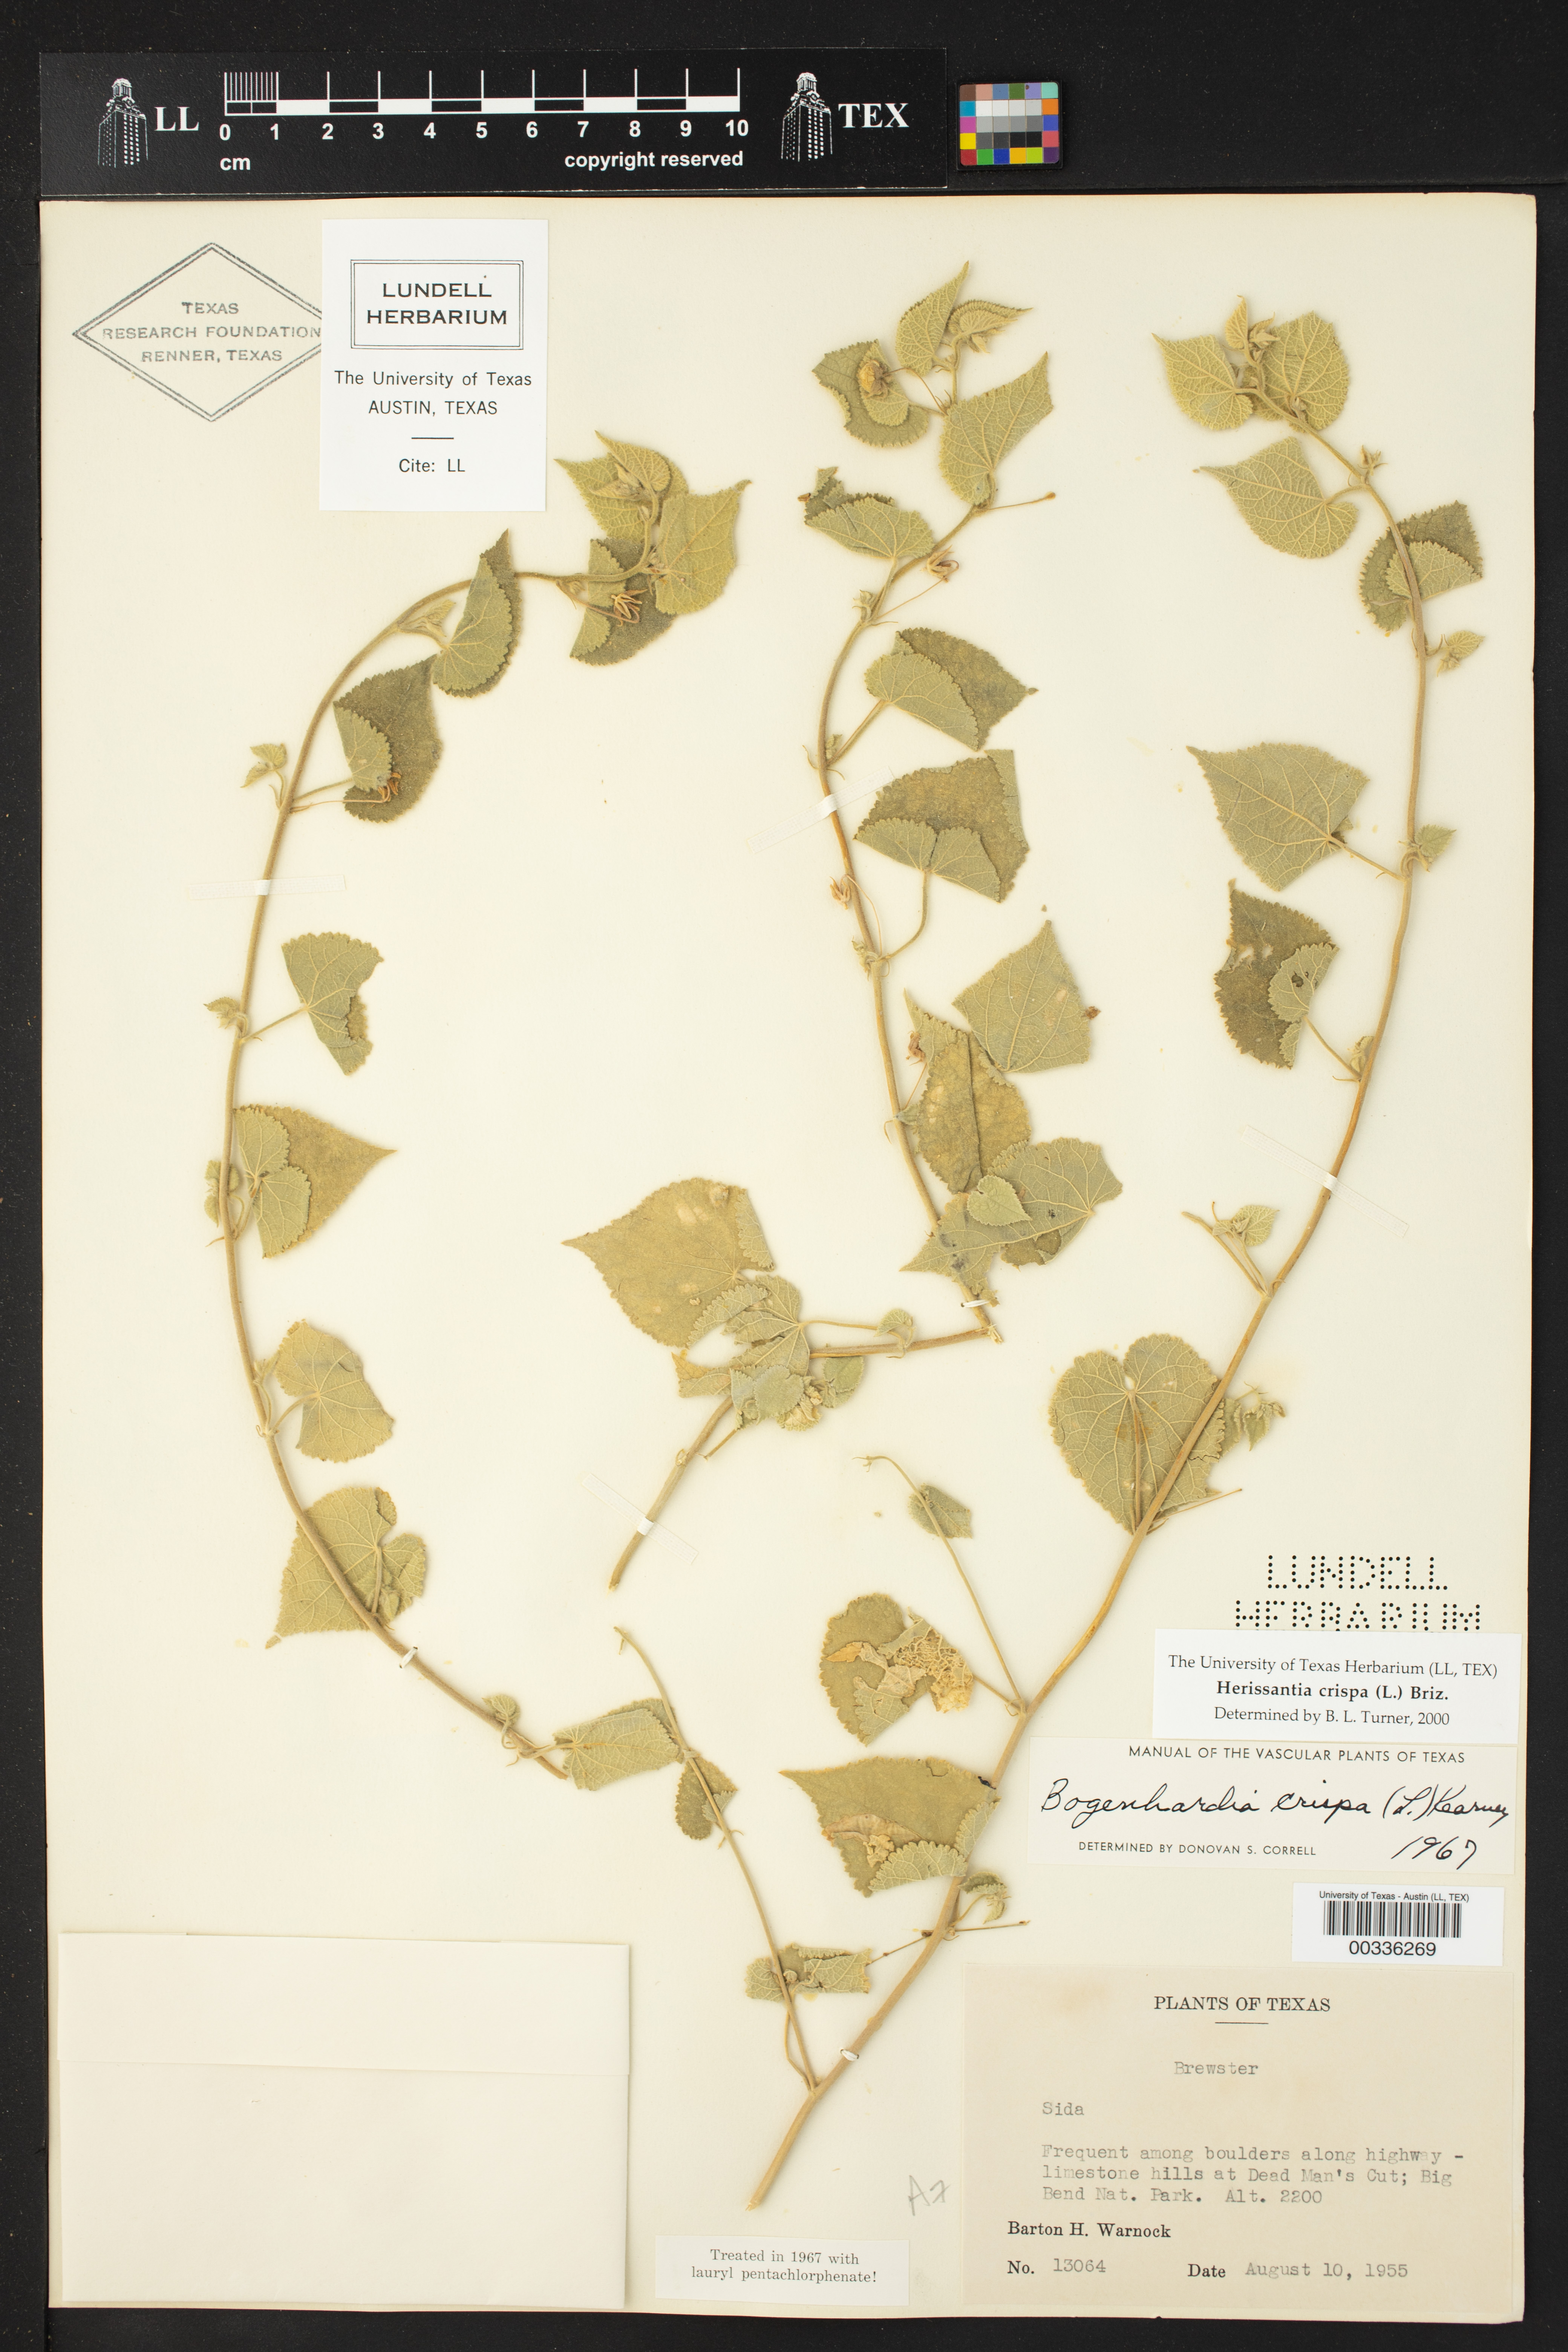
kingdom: Plantae
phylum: Tracheophyta
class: Magnoliopsida
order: Malvales
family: Malvaceae
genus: Herissantia
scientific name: Herissantia crispa
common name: Bladdermallow
